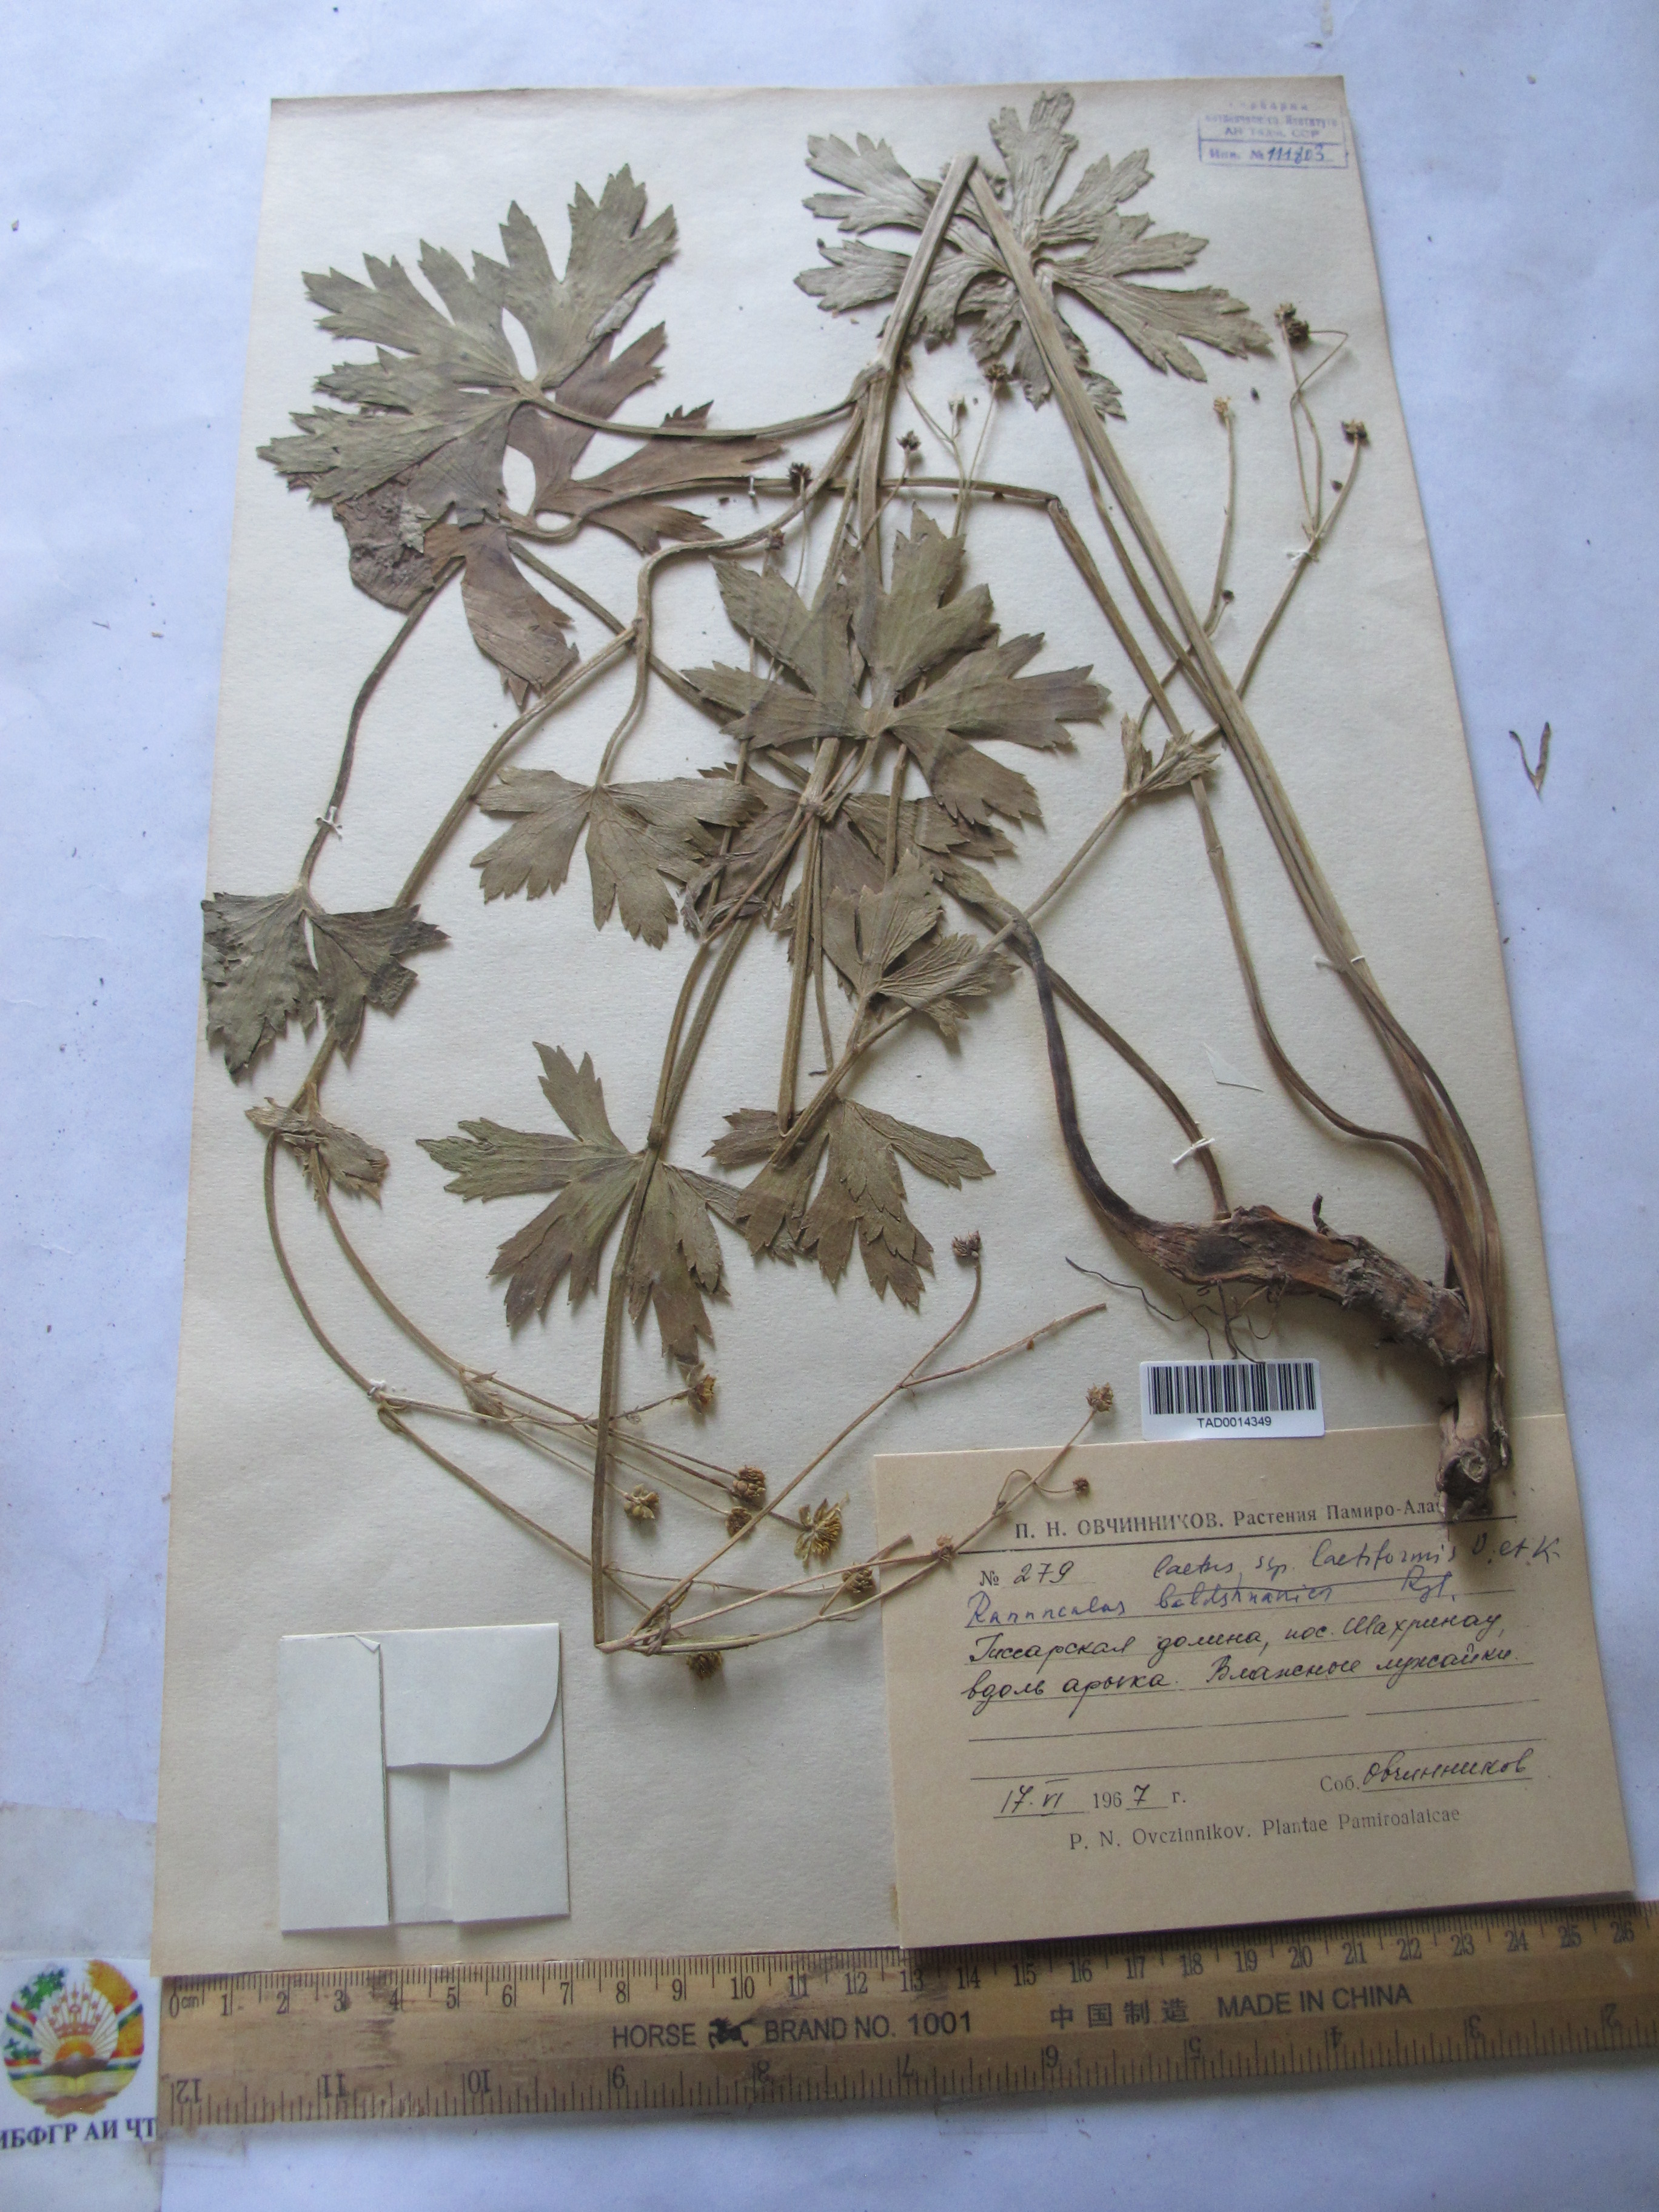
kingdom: Plantae
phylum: Tracheophyta
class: Magnoliopsida
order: Ranunculales
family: Ranunculaceae
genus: Ranunculus
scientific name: Ranunculus distans
